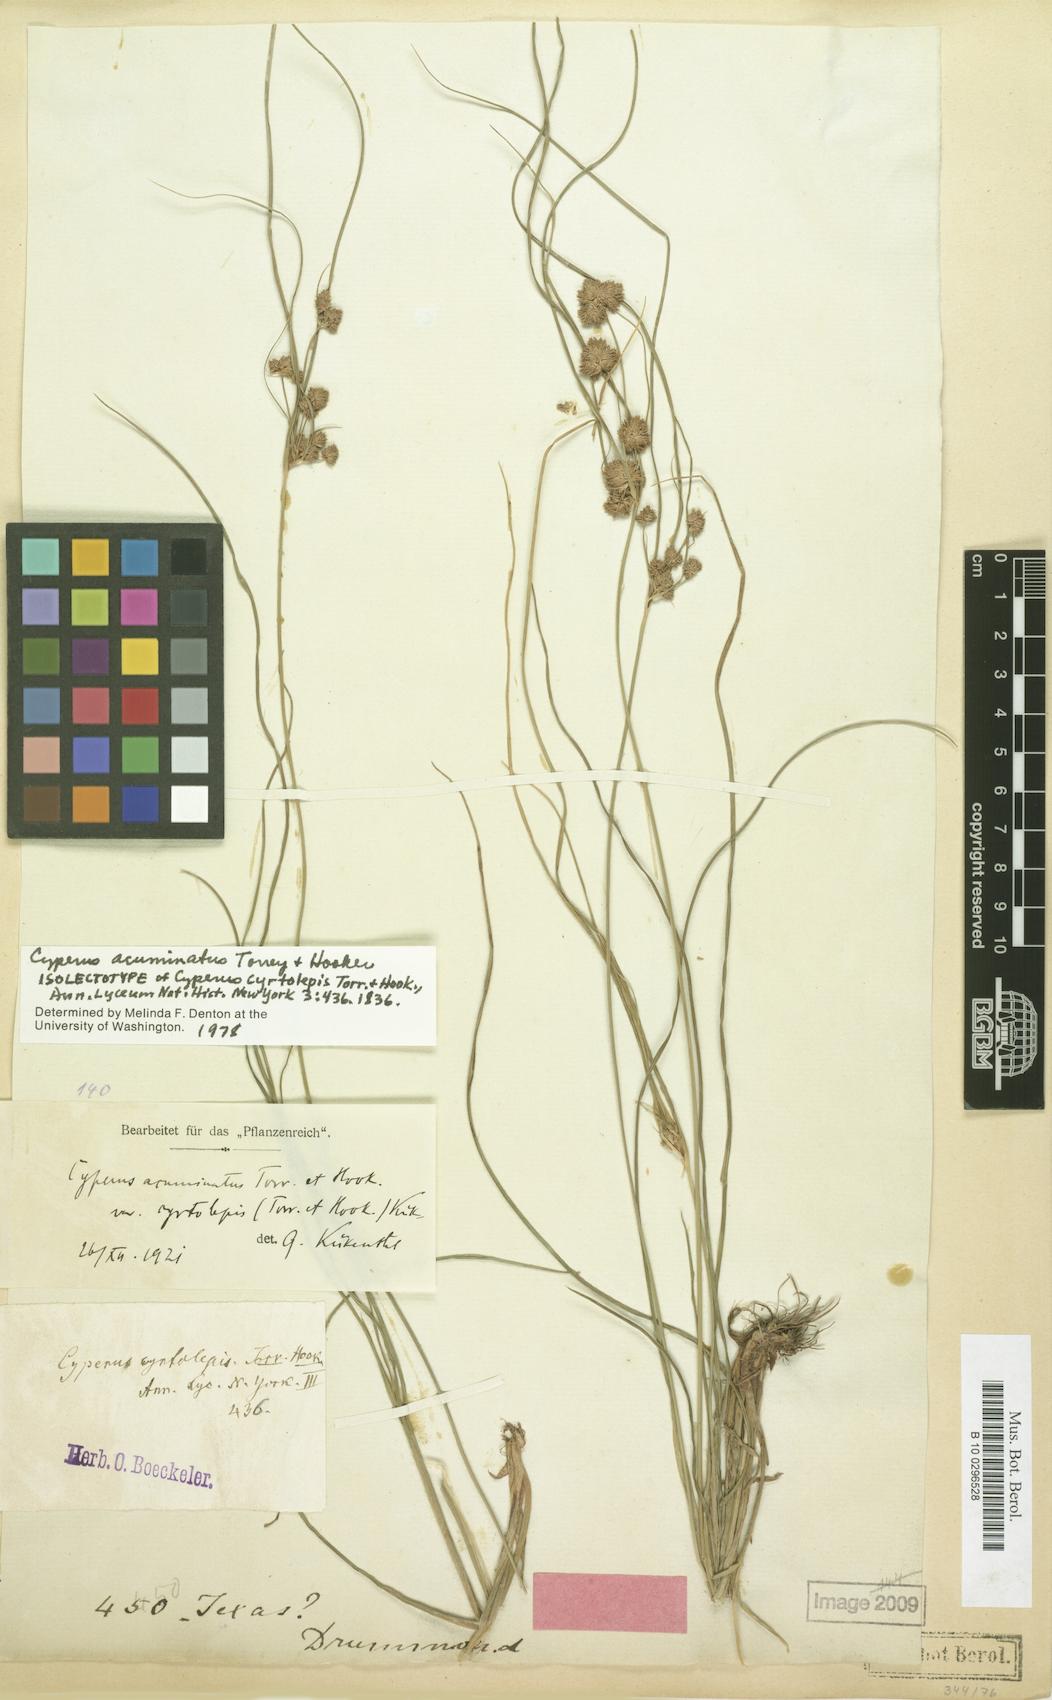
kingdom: Plantae
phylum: Tracheophyta
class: Liliopsida
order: Poales
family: Cyperaceae
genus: Cyperus
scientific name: Cyperus acuminatus
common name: Short-pointed cyperus
